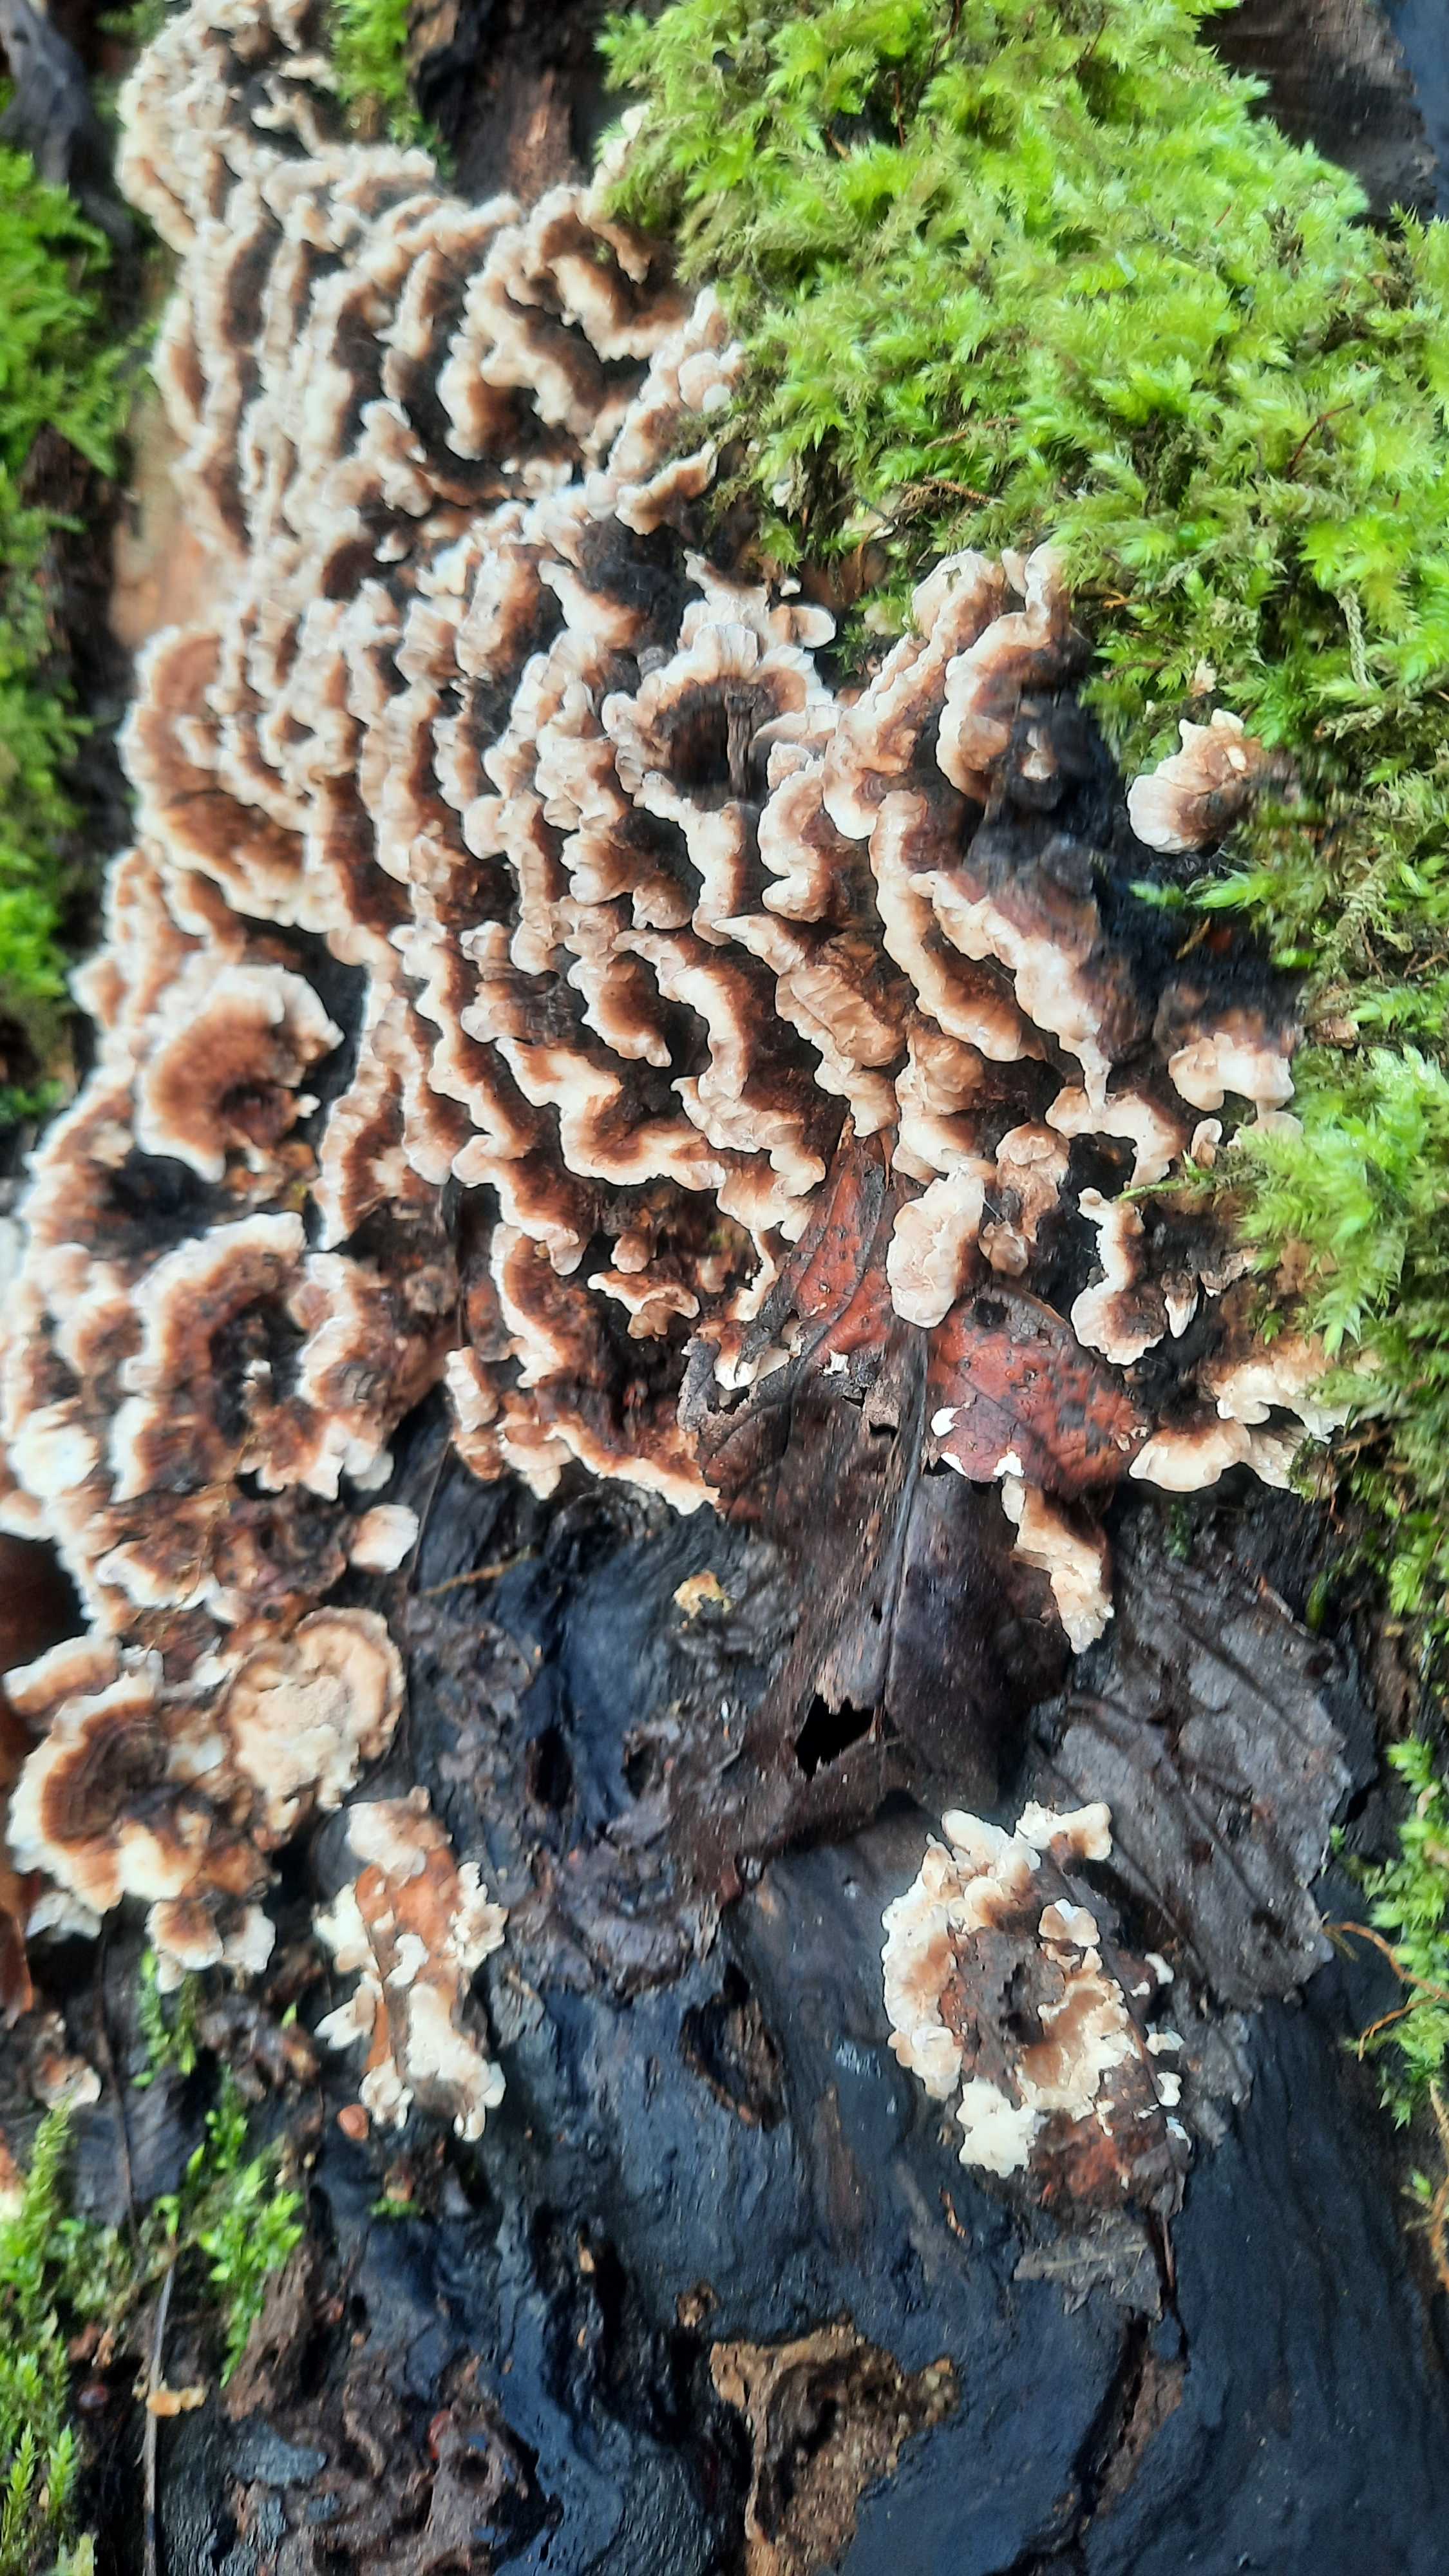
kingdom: Fungi
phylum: Basidiomycota
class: Agaricomycetes
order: Polyporales
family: Polyporaceae
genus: Trametes
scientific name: Trametes versicolor
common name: broget læderporesvamp
